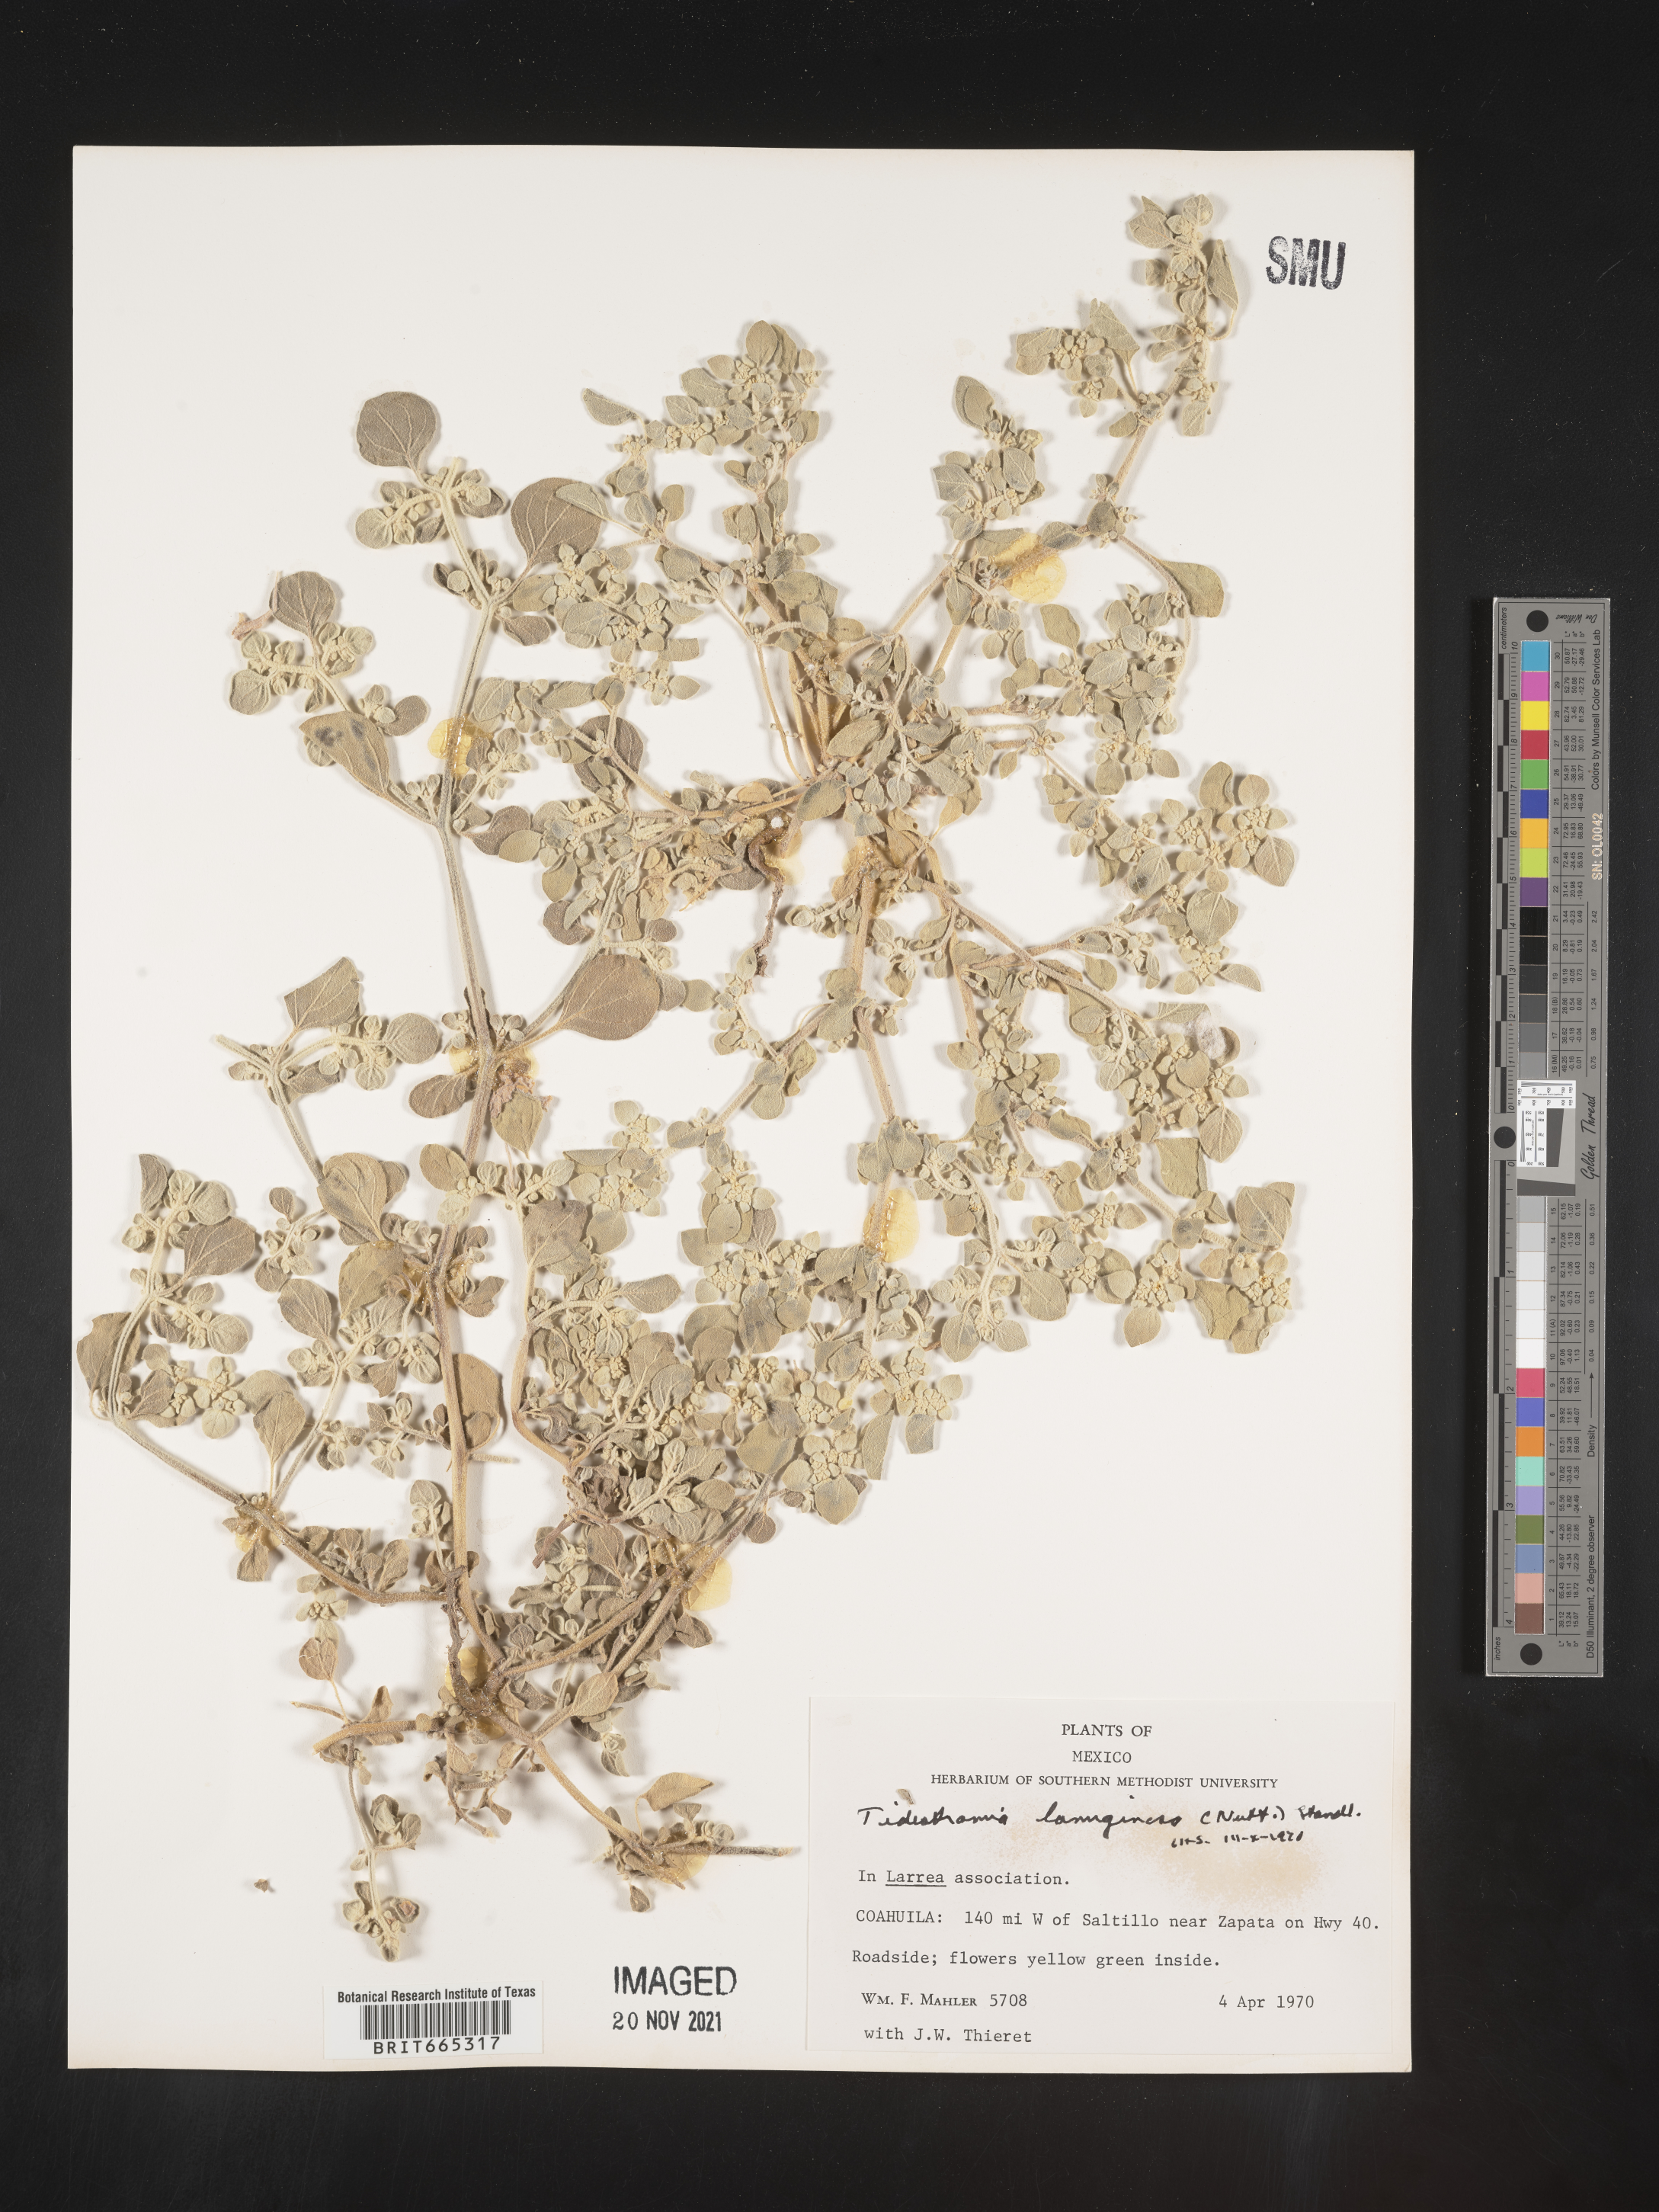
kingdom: Plantae
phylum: Tracheophyta
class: Magnoliopsida
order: Caryophyllales
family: Amaranthaceae
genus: Tidestromia
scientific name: Tidestromia
